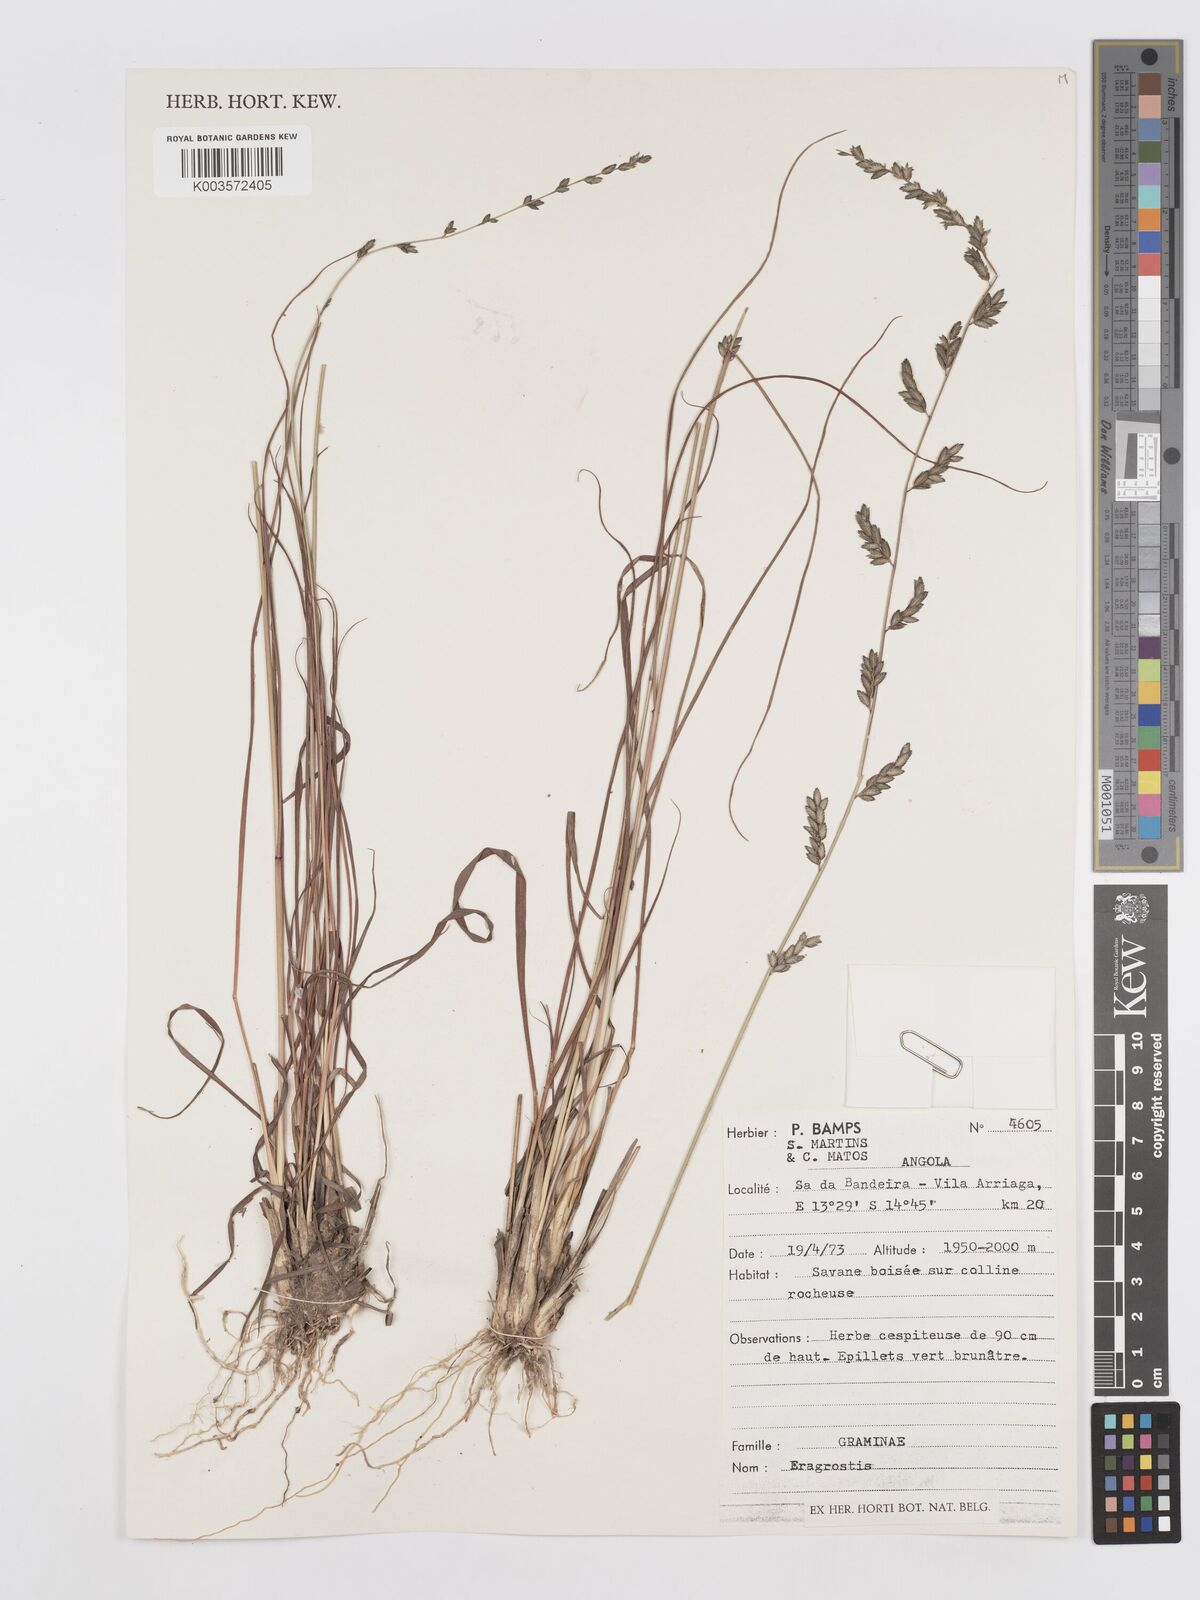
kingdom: Plantae
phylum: Tracheophyta
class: Liliopsida
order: Poales
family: Poaceae
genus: Eragrostis
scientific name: Eragrostis
